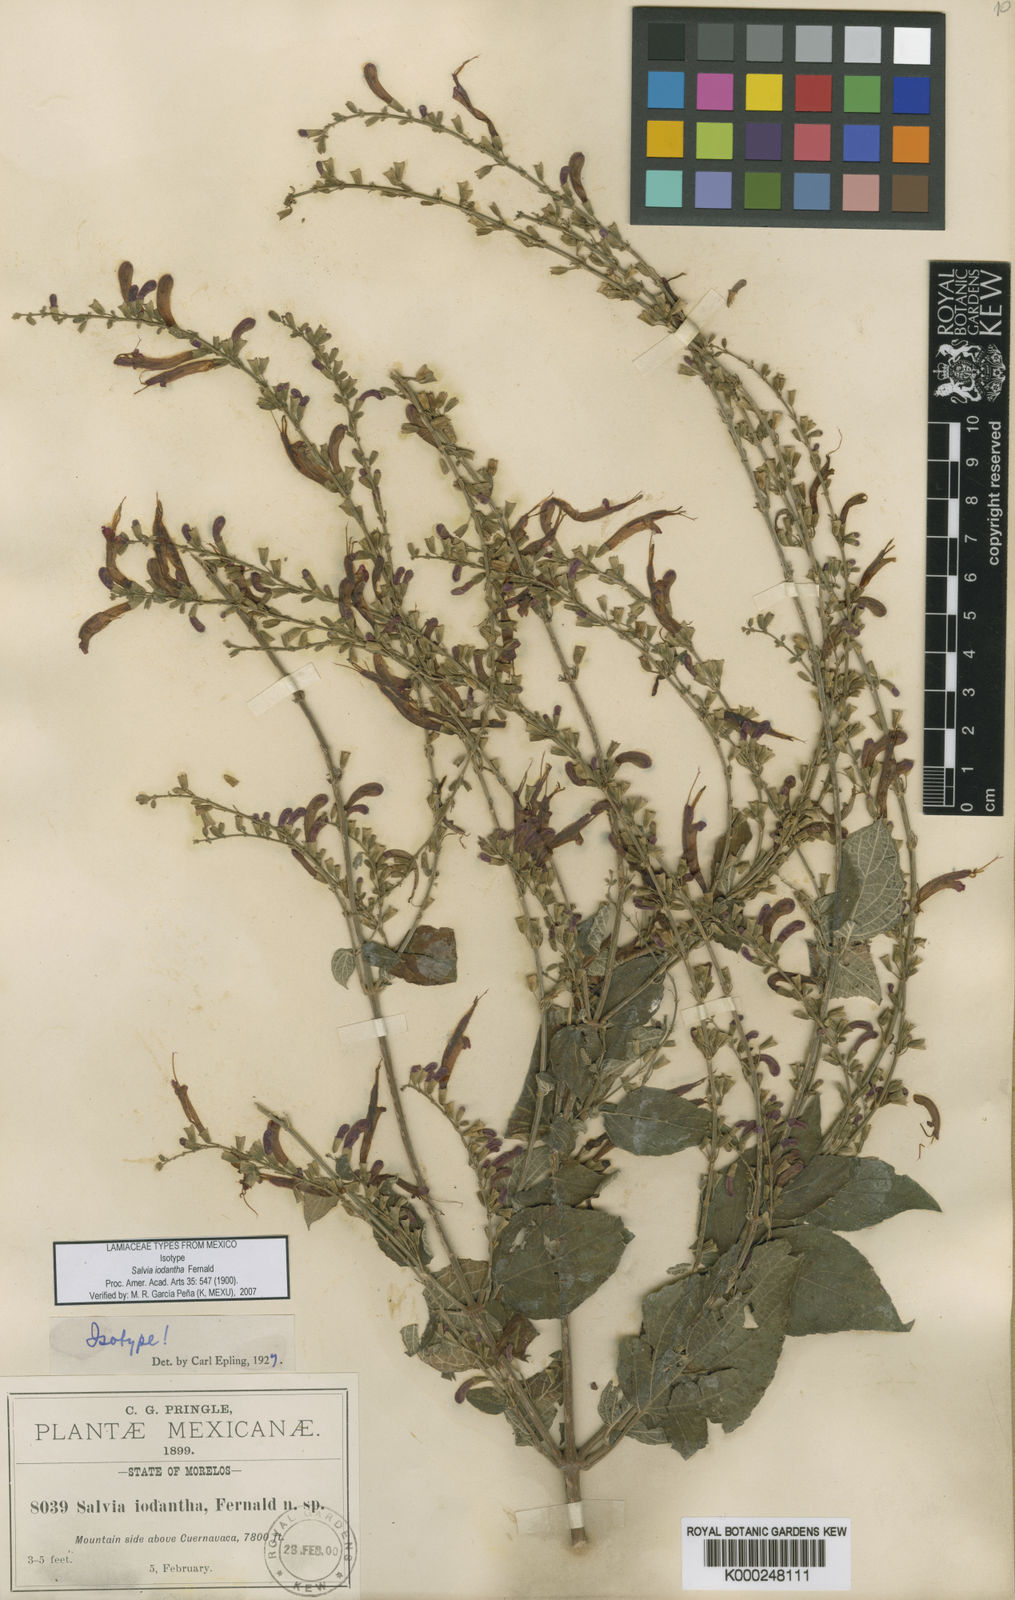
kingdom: Plantae
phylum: Tracheophyta
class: Magnoliopsida
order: Lamiales
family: Lamiaceae
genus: Salvia
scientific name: Salvia iodantha
